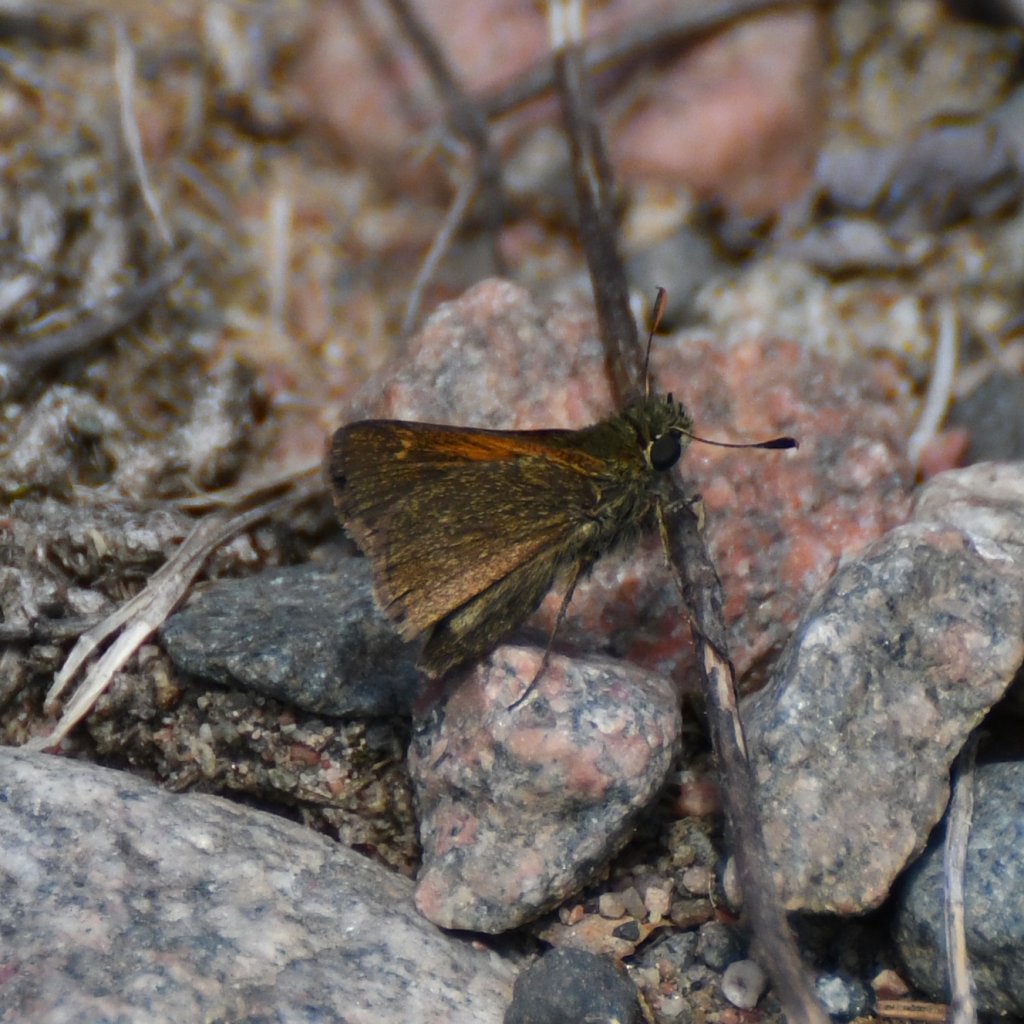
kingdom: Animalia
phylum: Arthropoda
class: Insecta
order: Lepidoptera
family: Hesperiidae
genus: Polites
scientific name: Polites themistocles
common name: Tawny-edged Skipper
